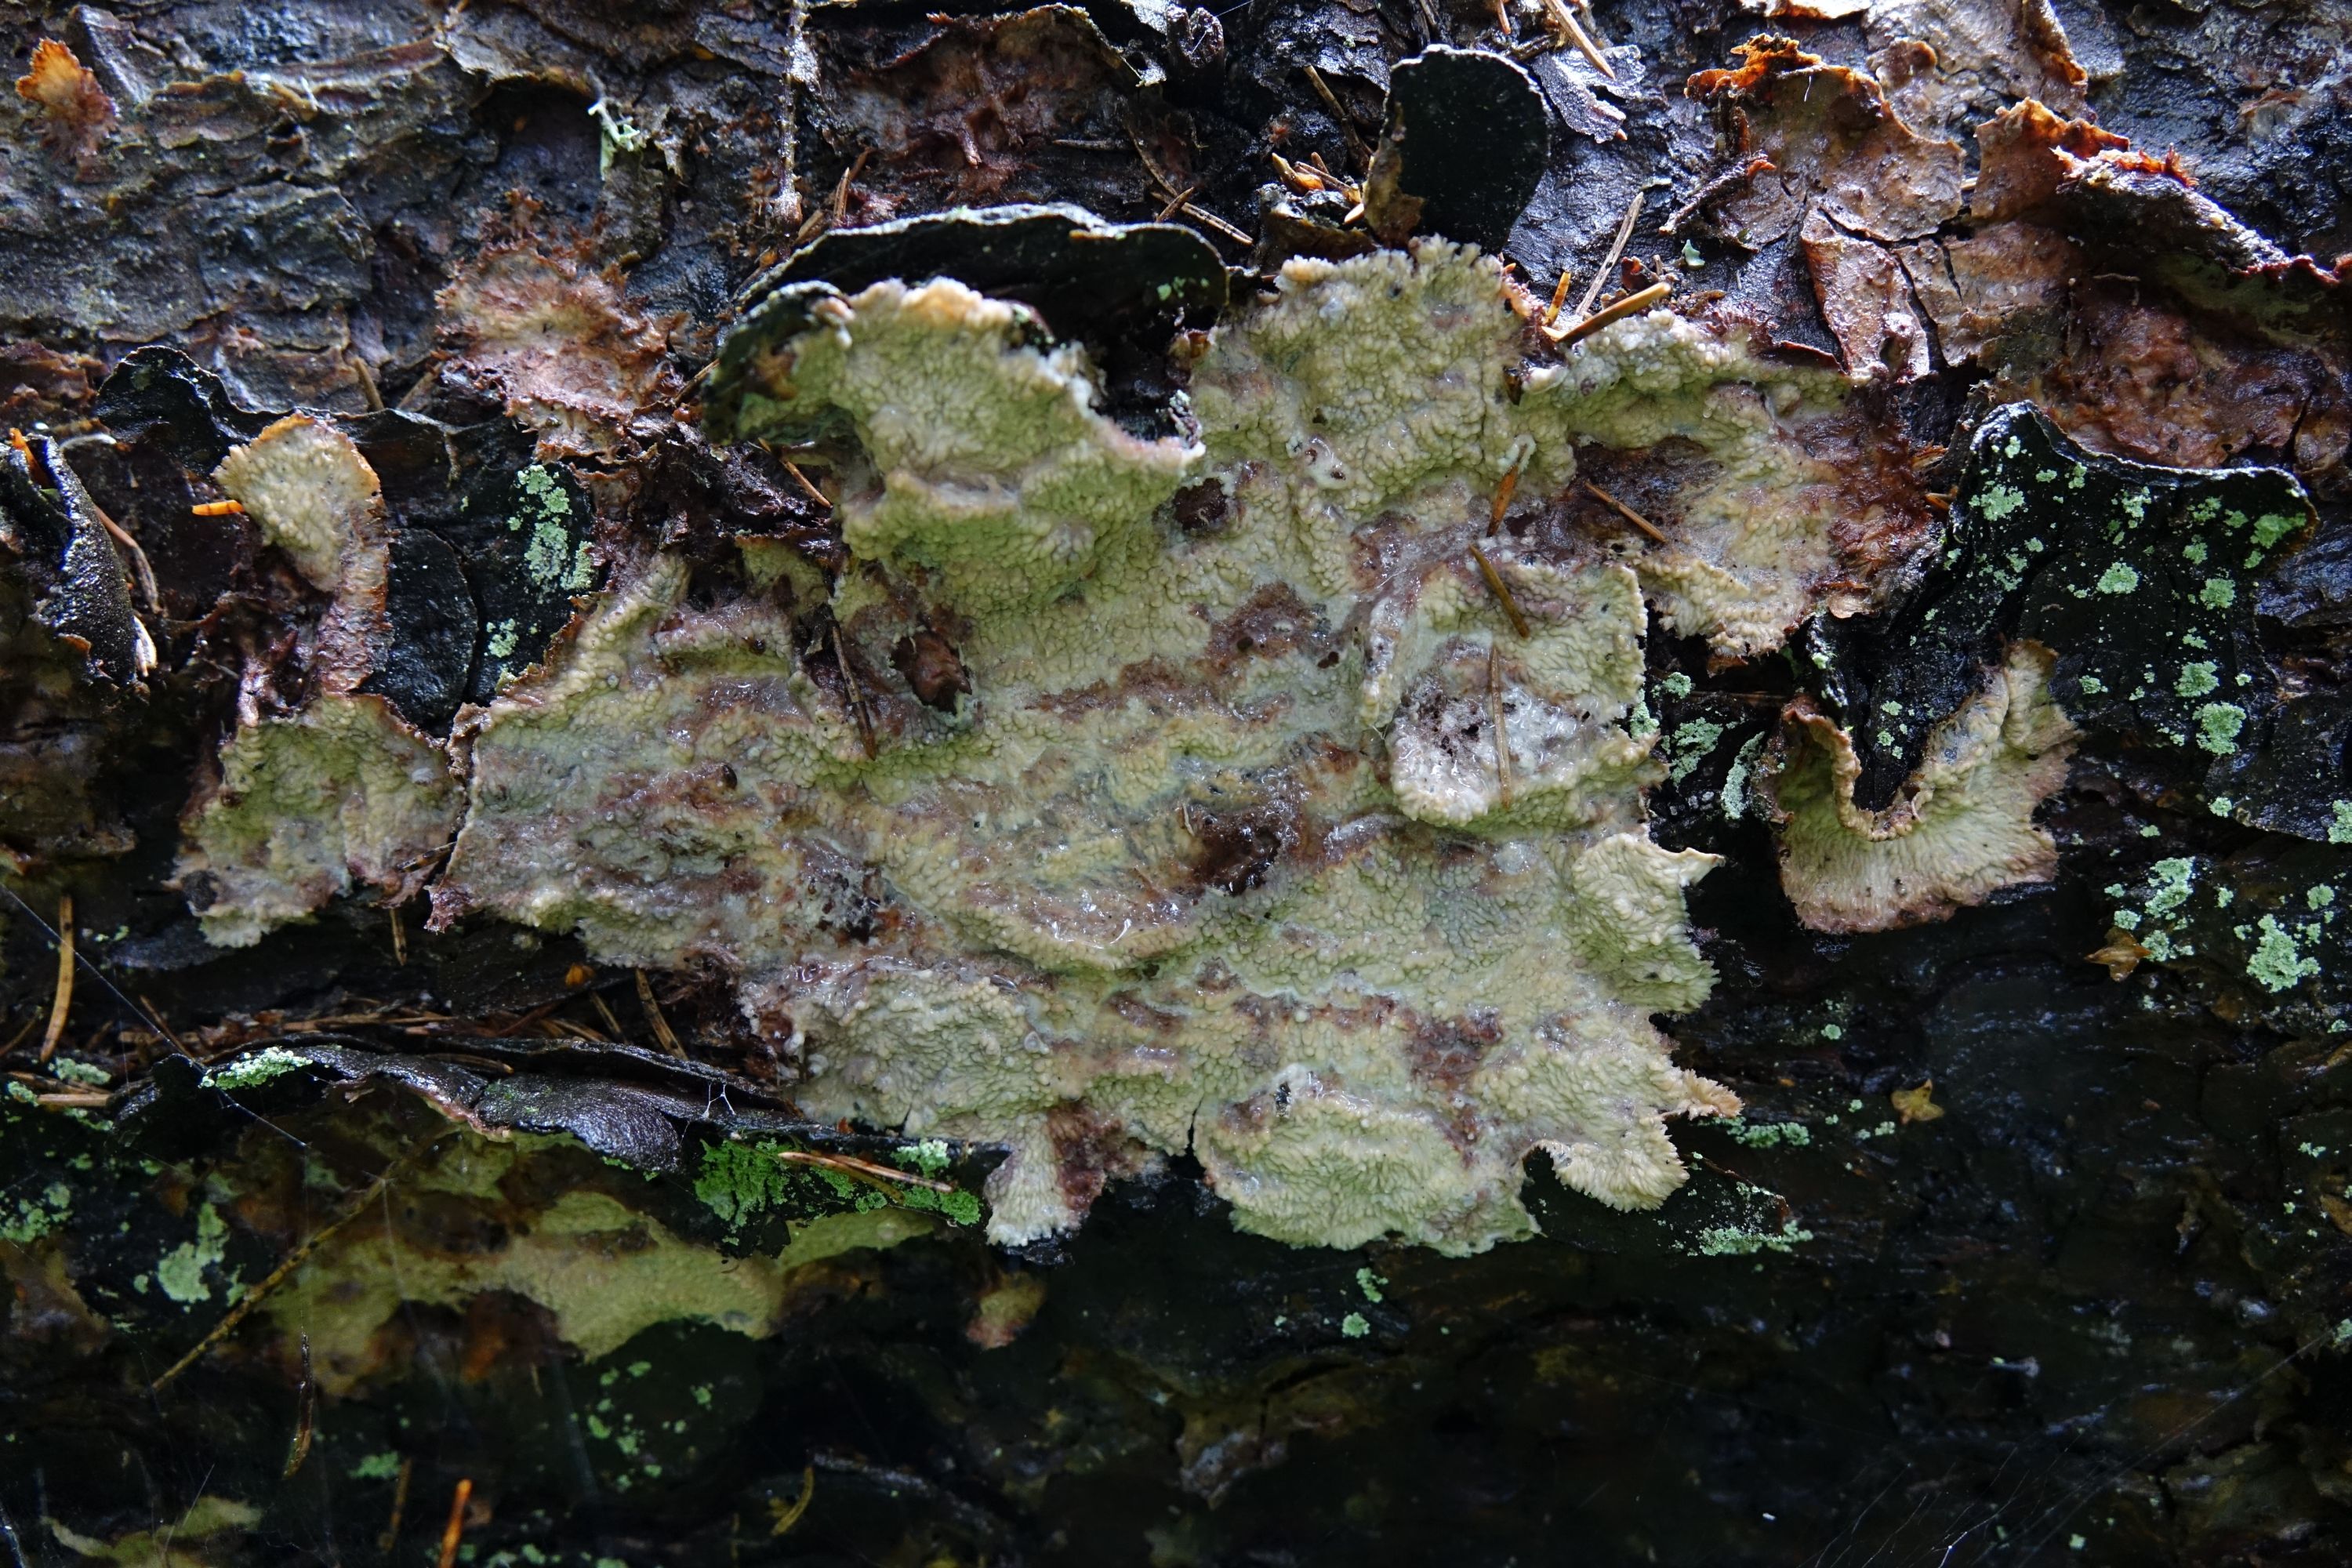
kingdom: Fungi
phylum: Basidiomycota
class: Agaricomycetes
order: Polyporales
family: Meruliaceae
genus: Hermanssonia
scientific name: Hermanssonia centrifuga
